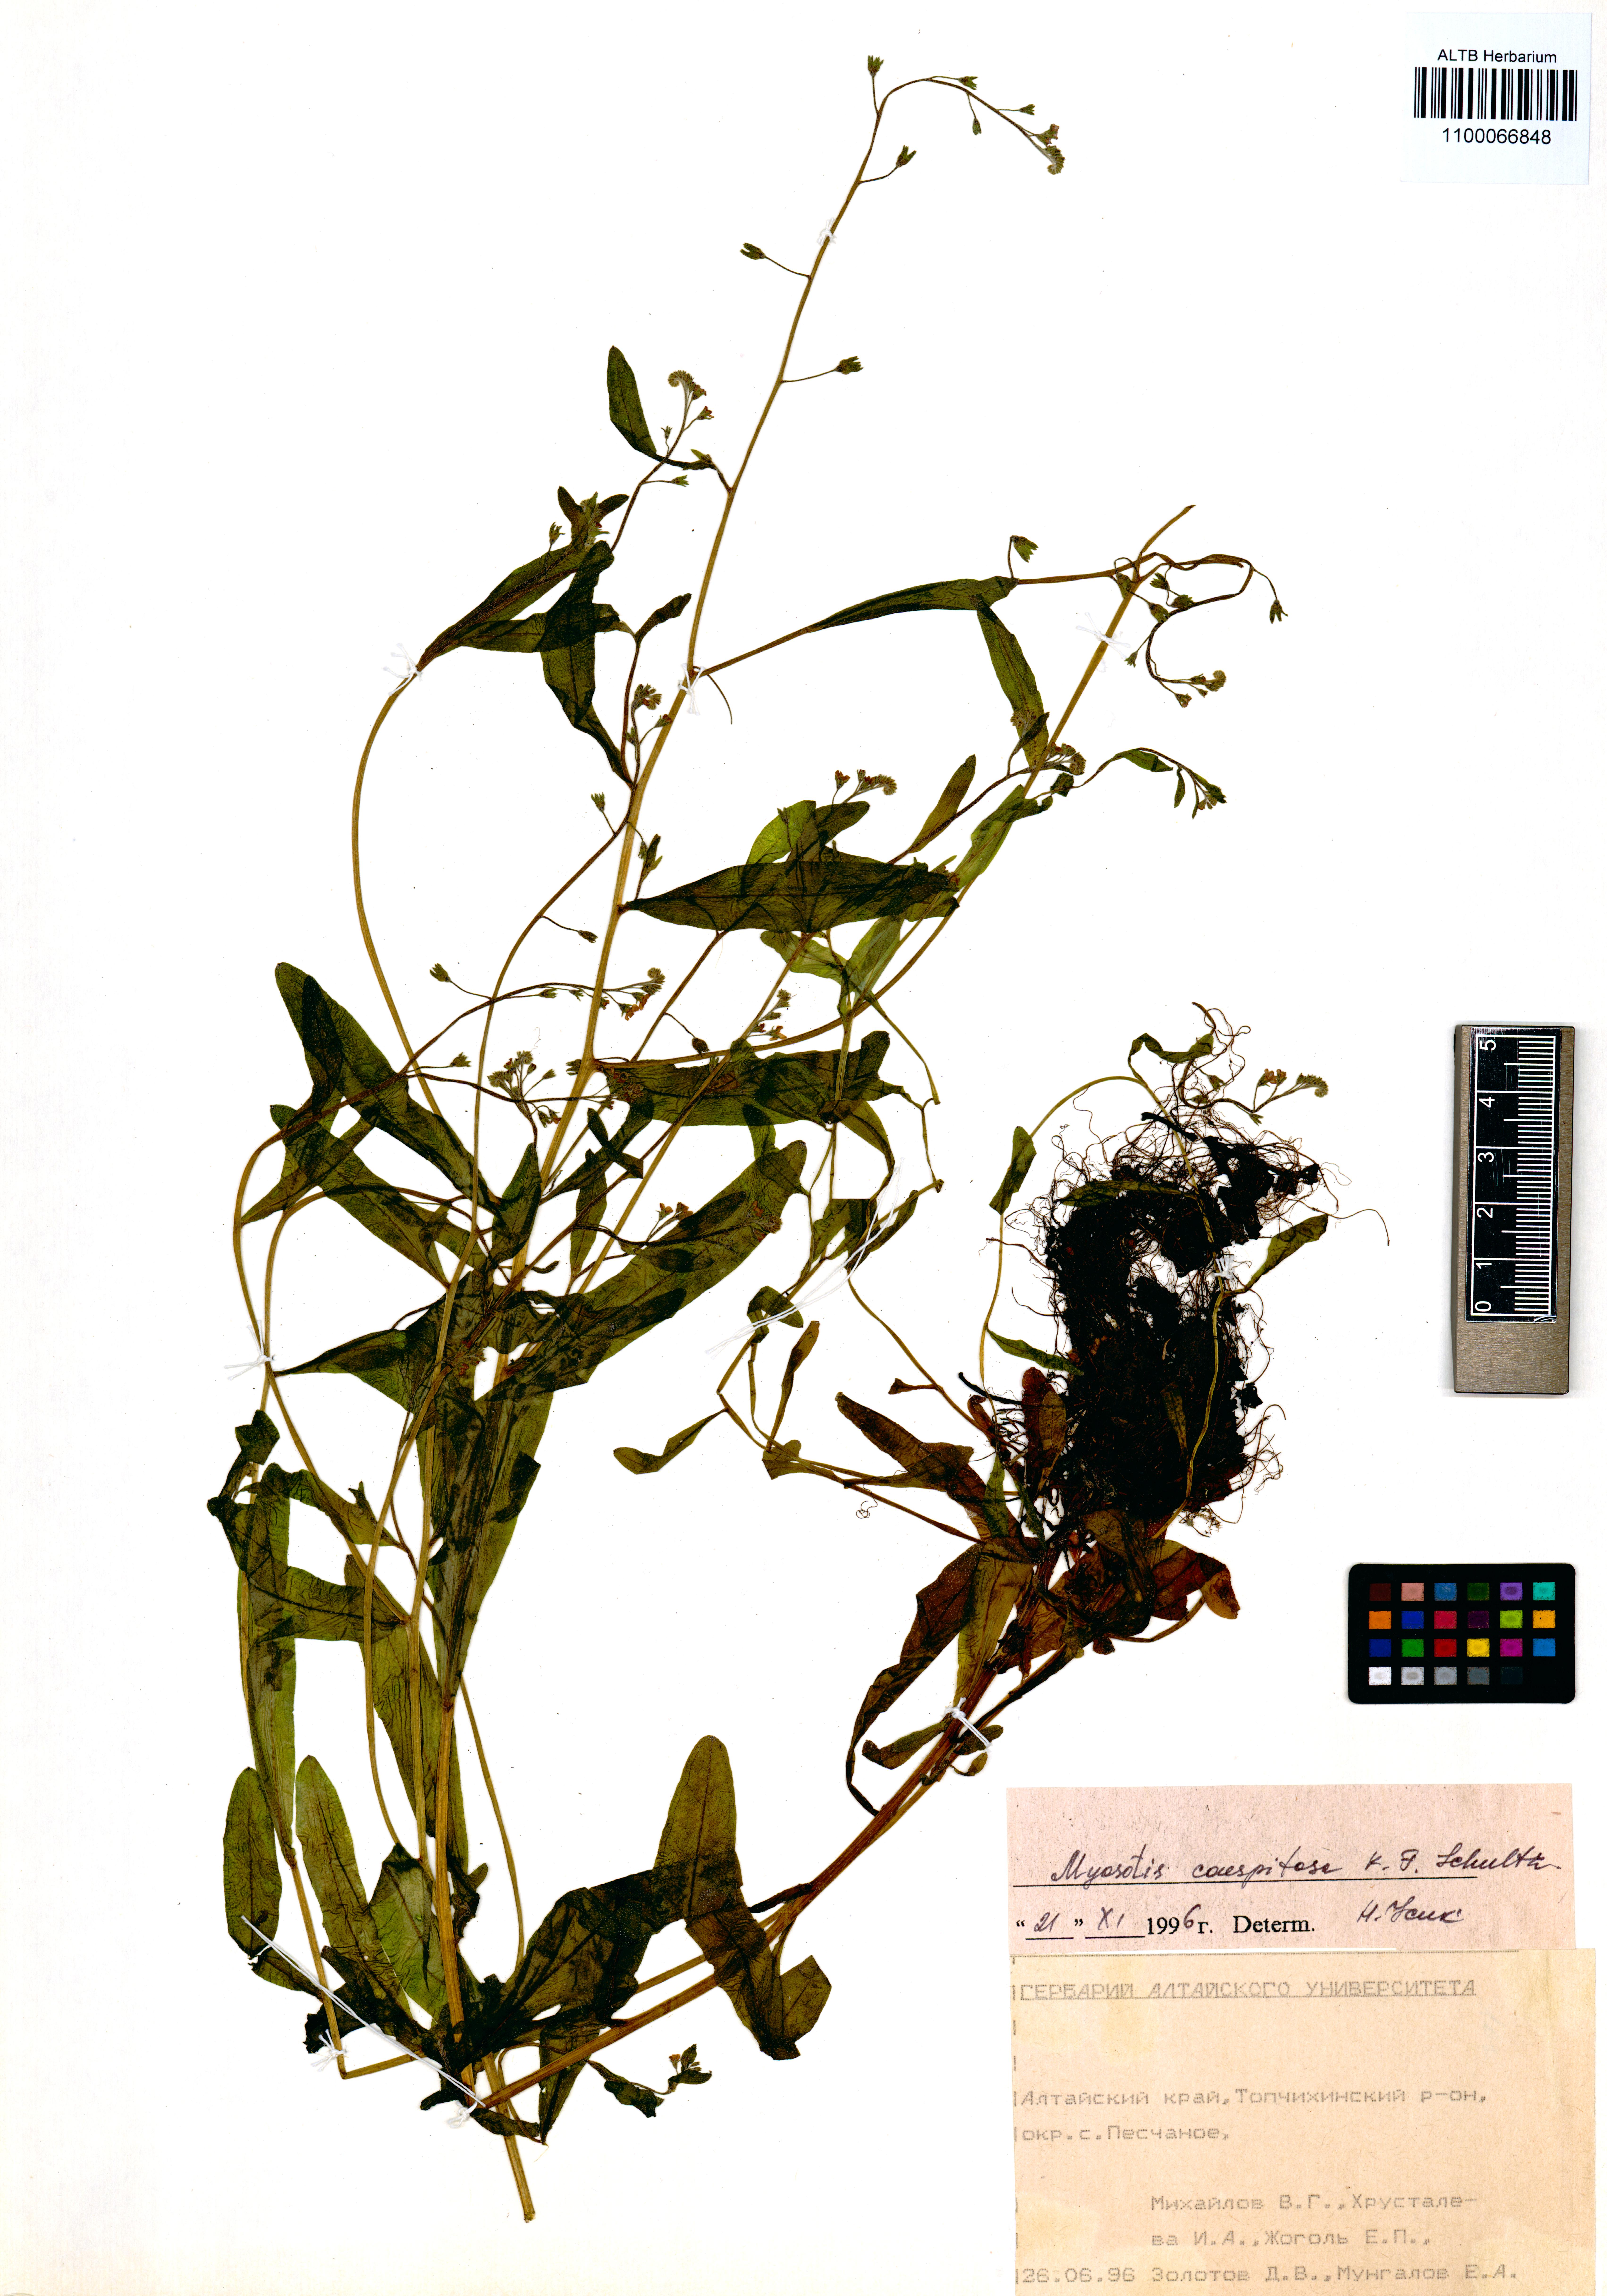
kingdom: Plantae
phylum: Tracheophyta
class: Magnoliopsida
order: Boraginales
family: Boraginaceae
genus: Myosotis
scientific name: Myosotis laxa
